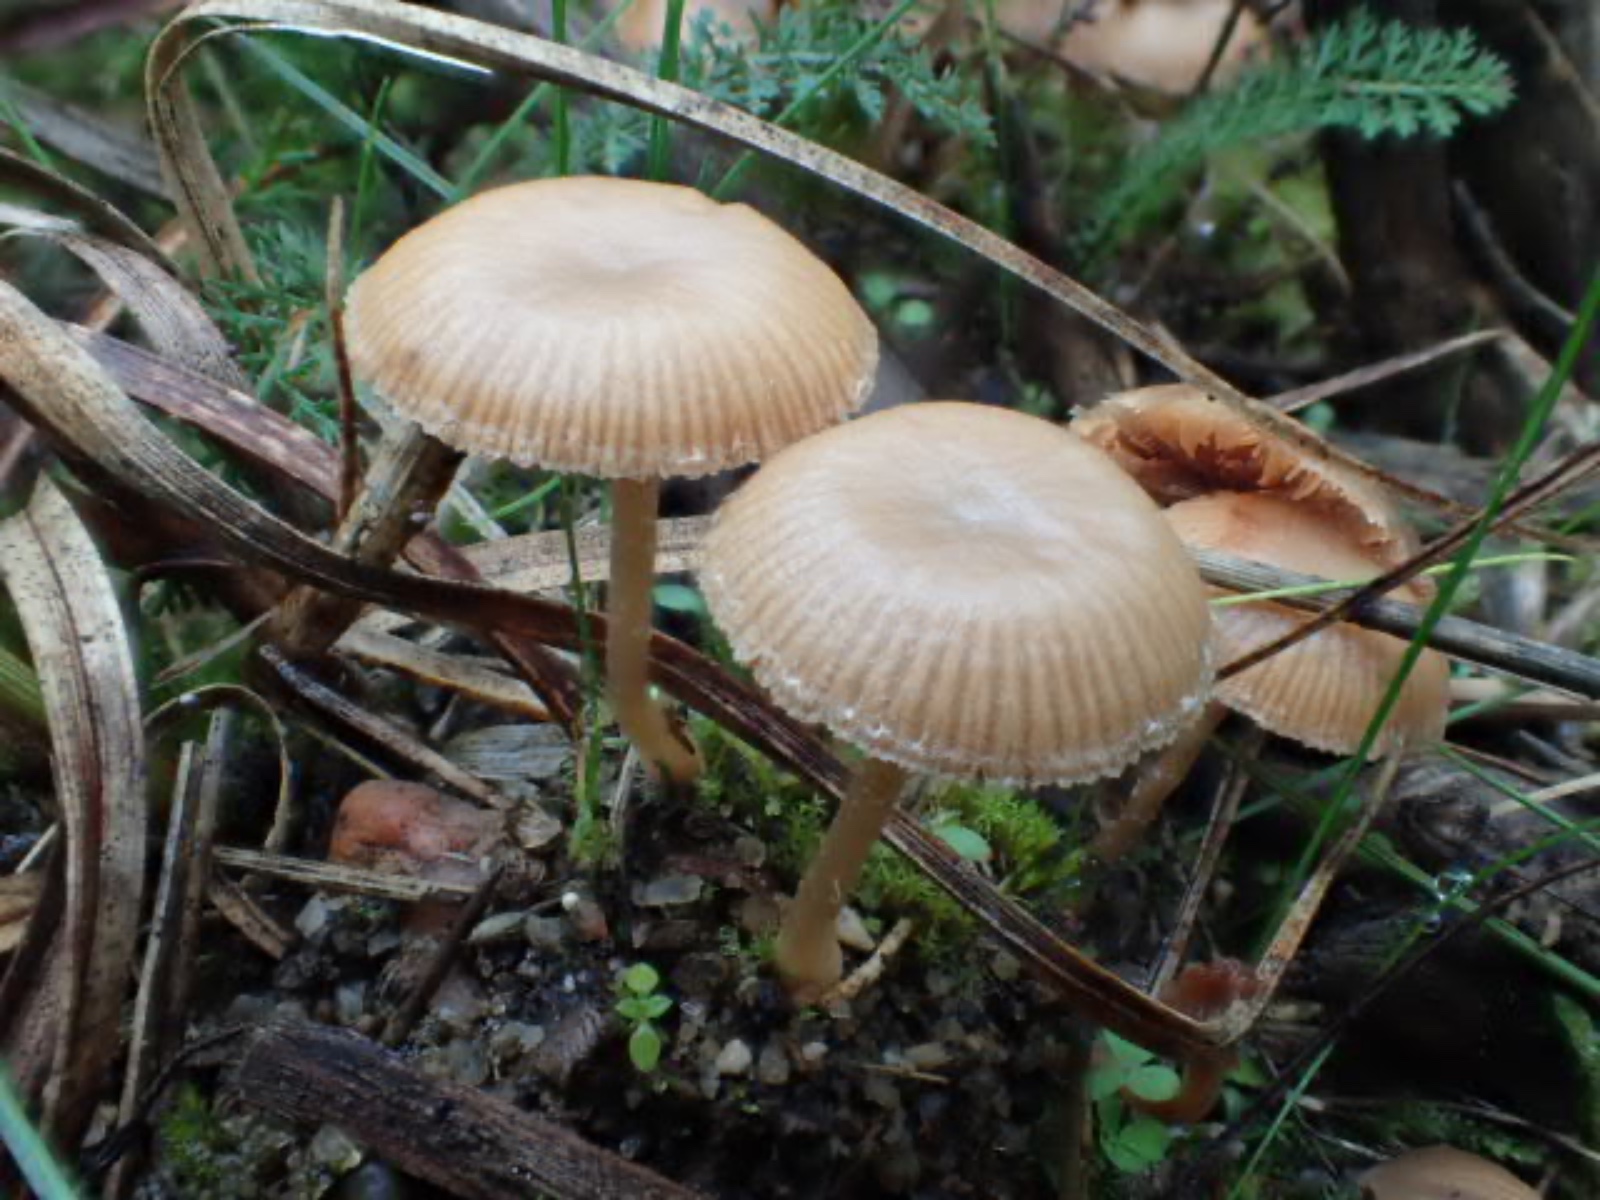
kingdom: Fungi
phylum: Basidiomycota
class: Agaricomycetes
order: Agaricales
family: Tubariaceae
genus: Tubaria
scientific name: Tubaria furfuracea
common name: kliddet fnughat
